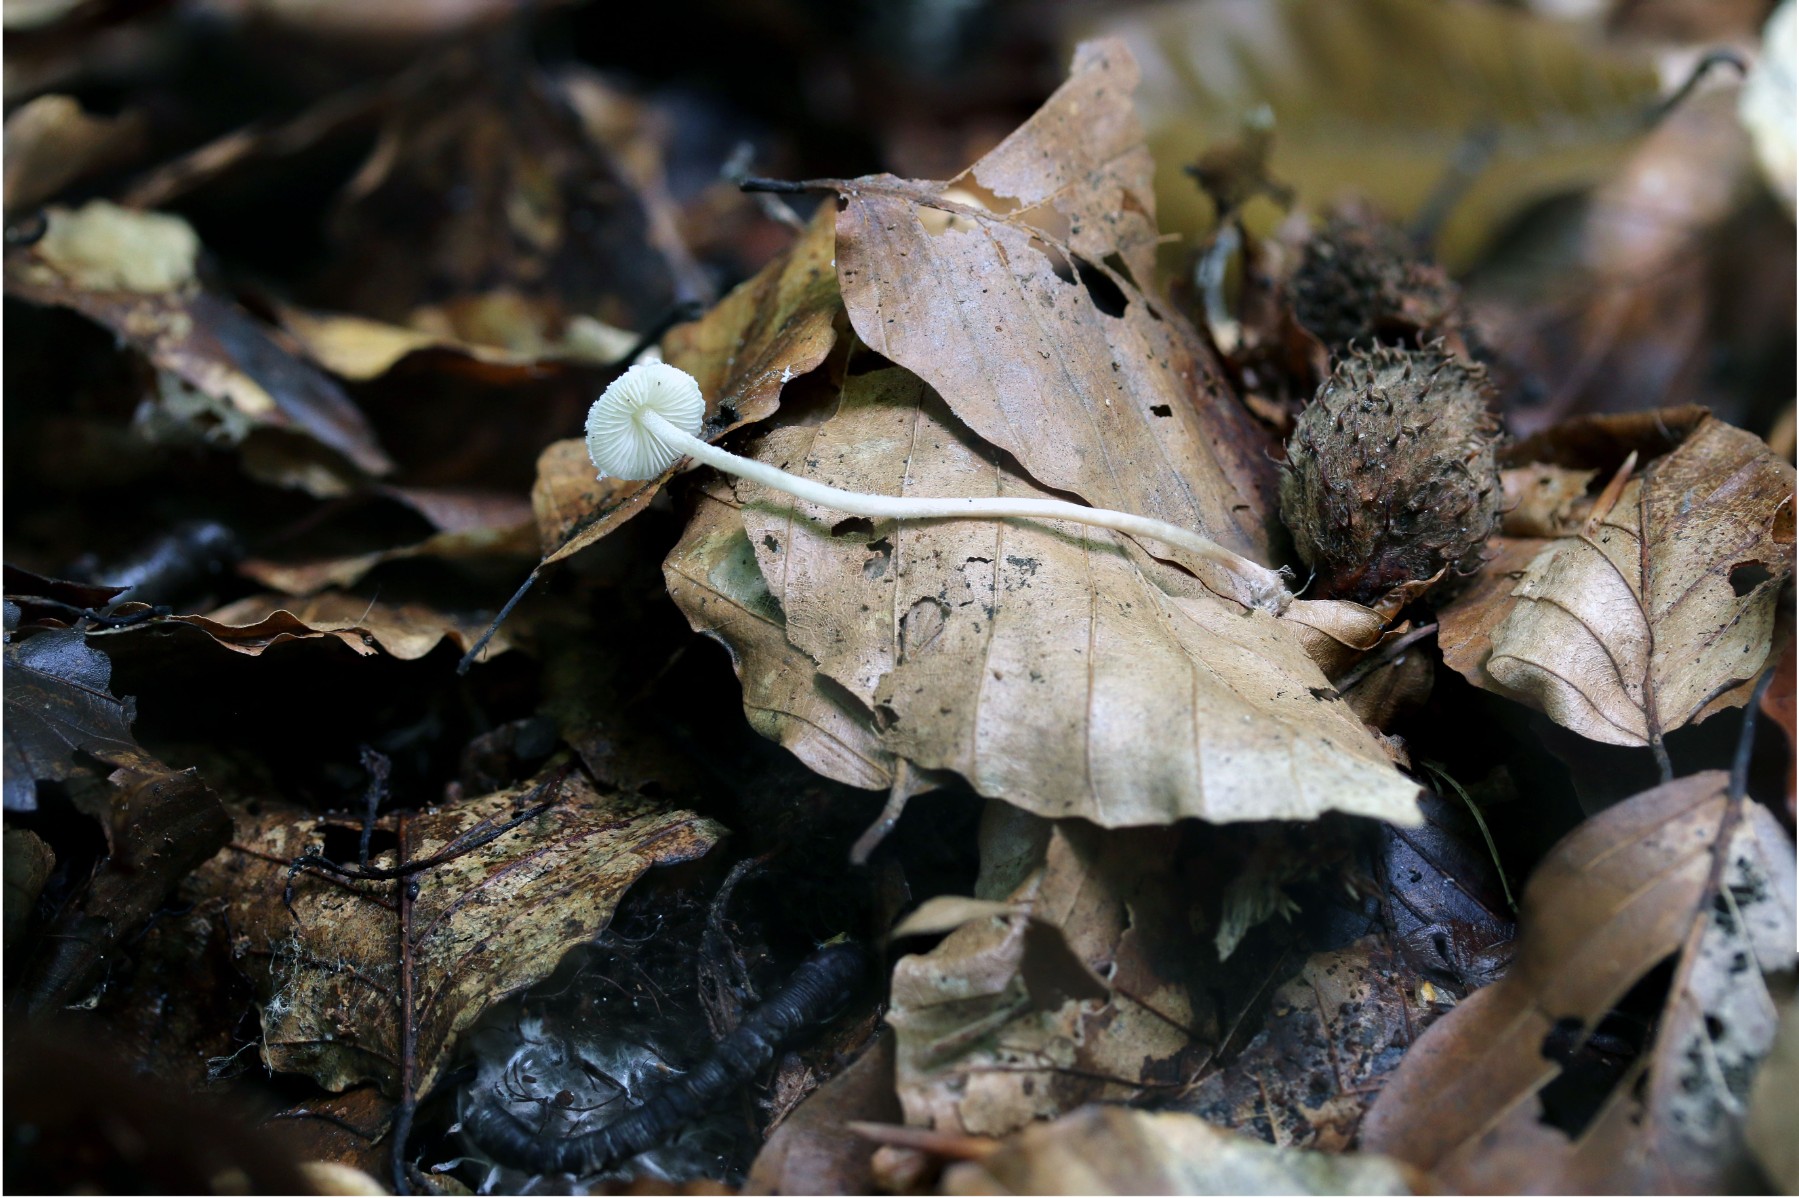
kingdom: Fungi
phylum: Basidiomycota
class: Agaricomycetes
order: Agaricales
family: Agaricaceae
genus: Cystolepiota
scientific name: Cystolepiota seminuda
